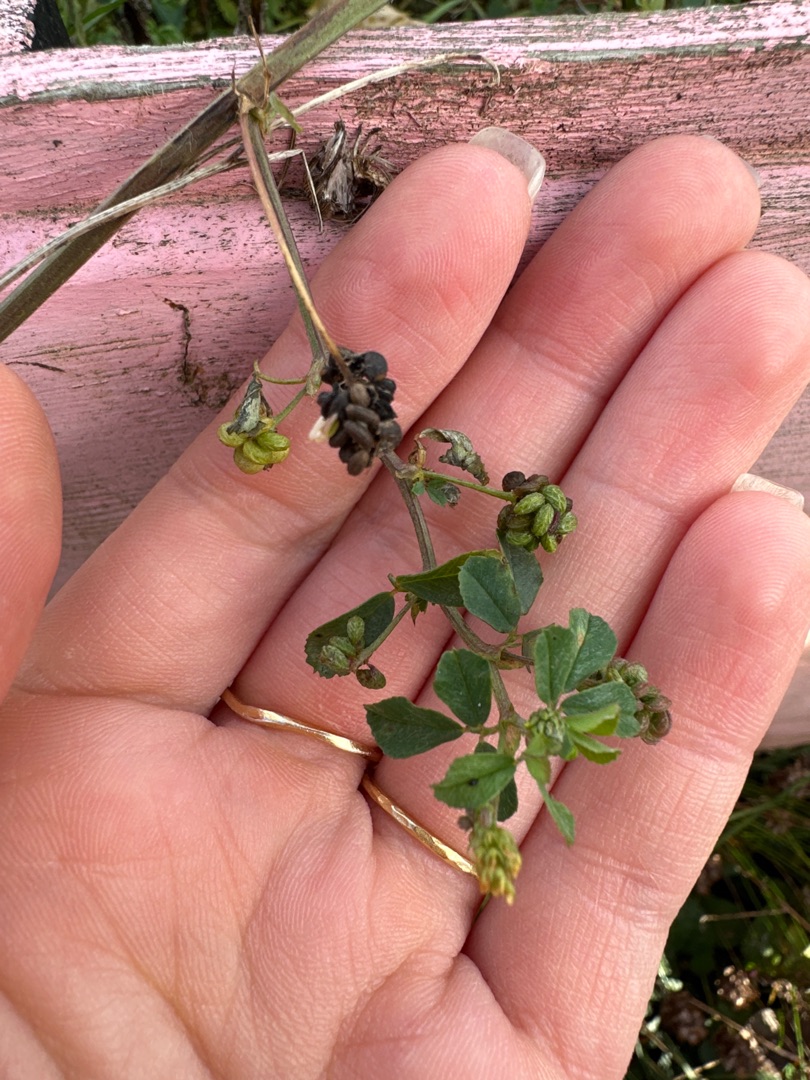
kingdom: Plantae
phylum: Tracheophyta
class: Magnoliopsida
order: Fabales
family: Fabaceae
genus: Medicago
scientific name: Medicago lupulina
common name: Humle-sneglebælg
